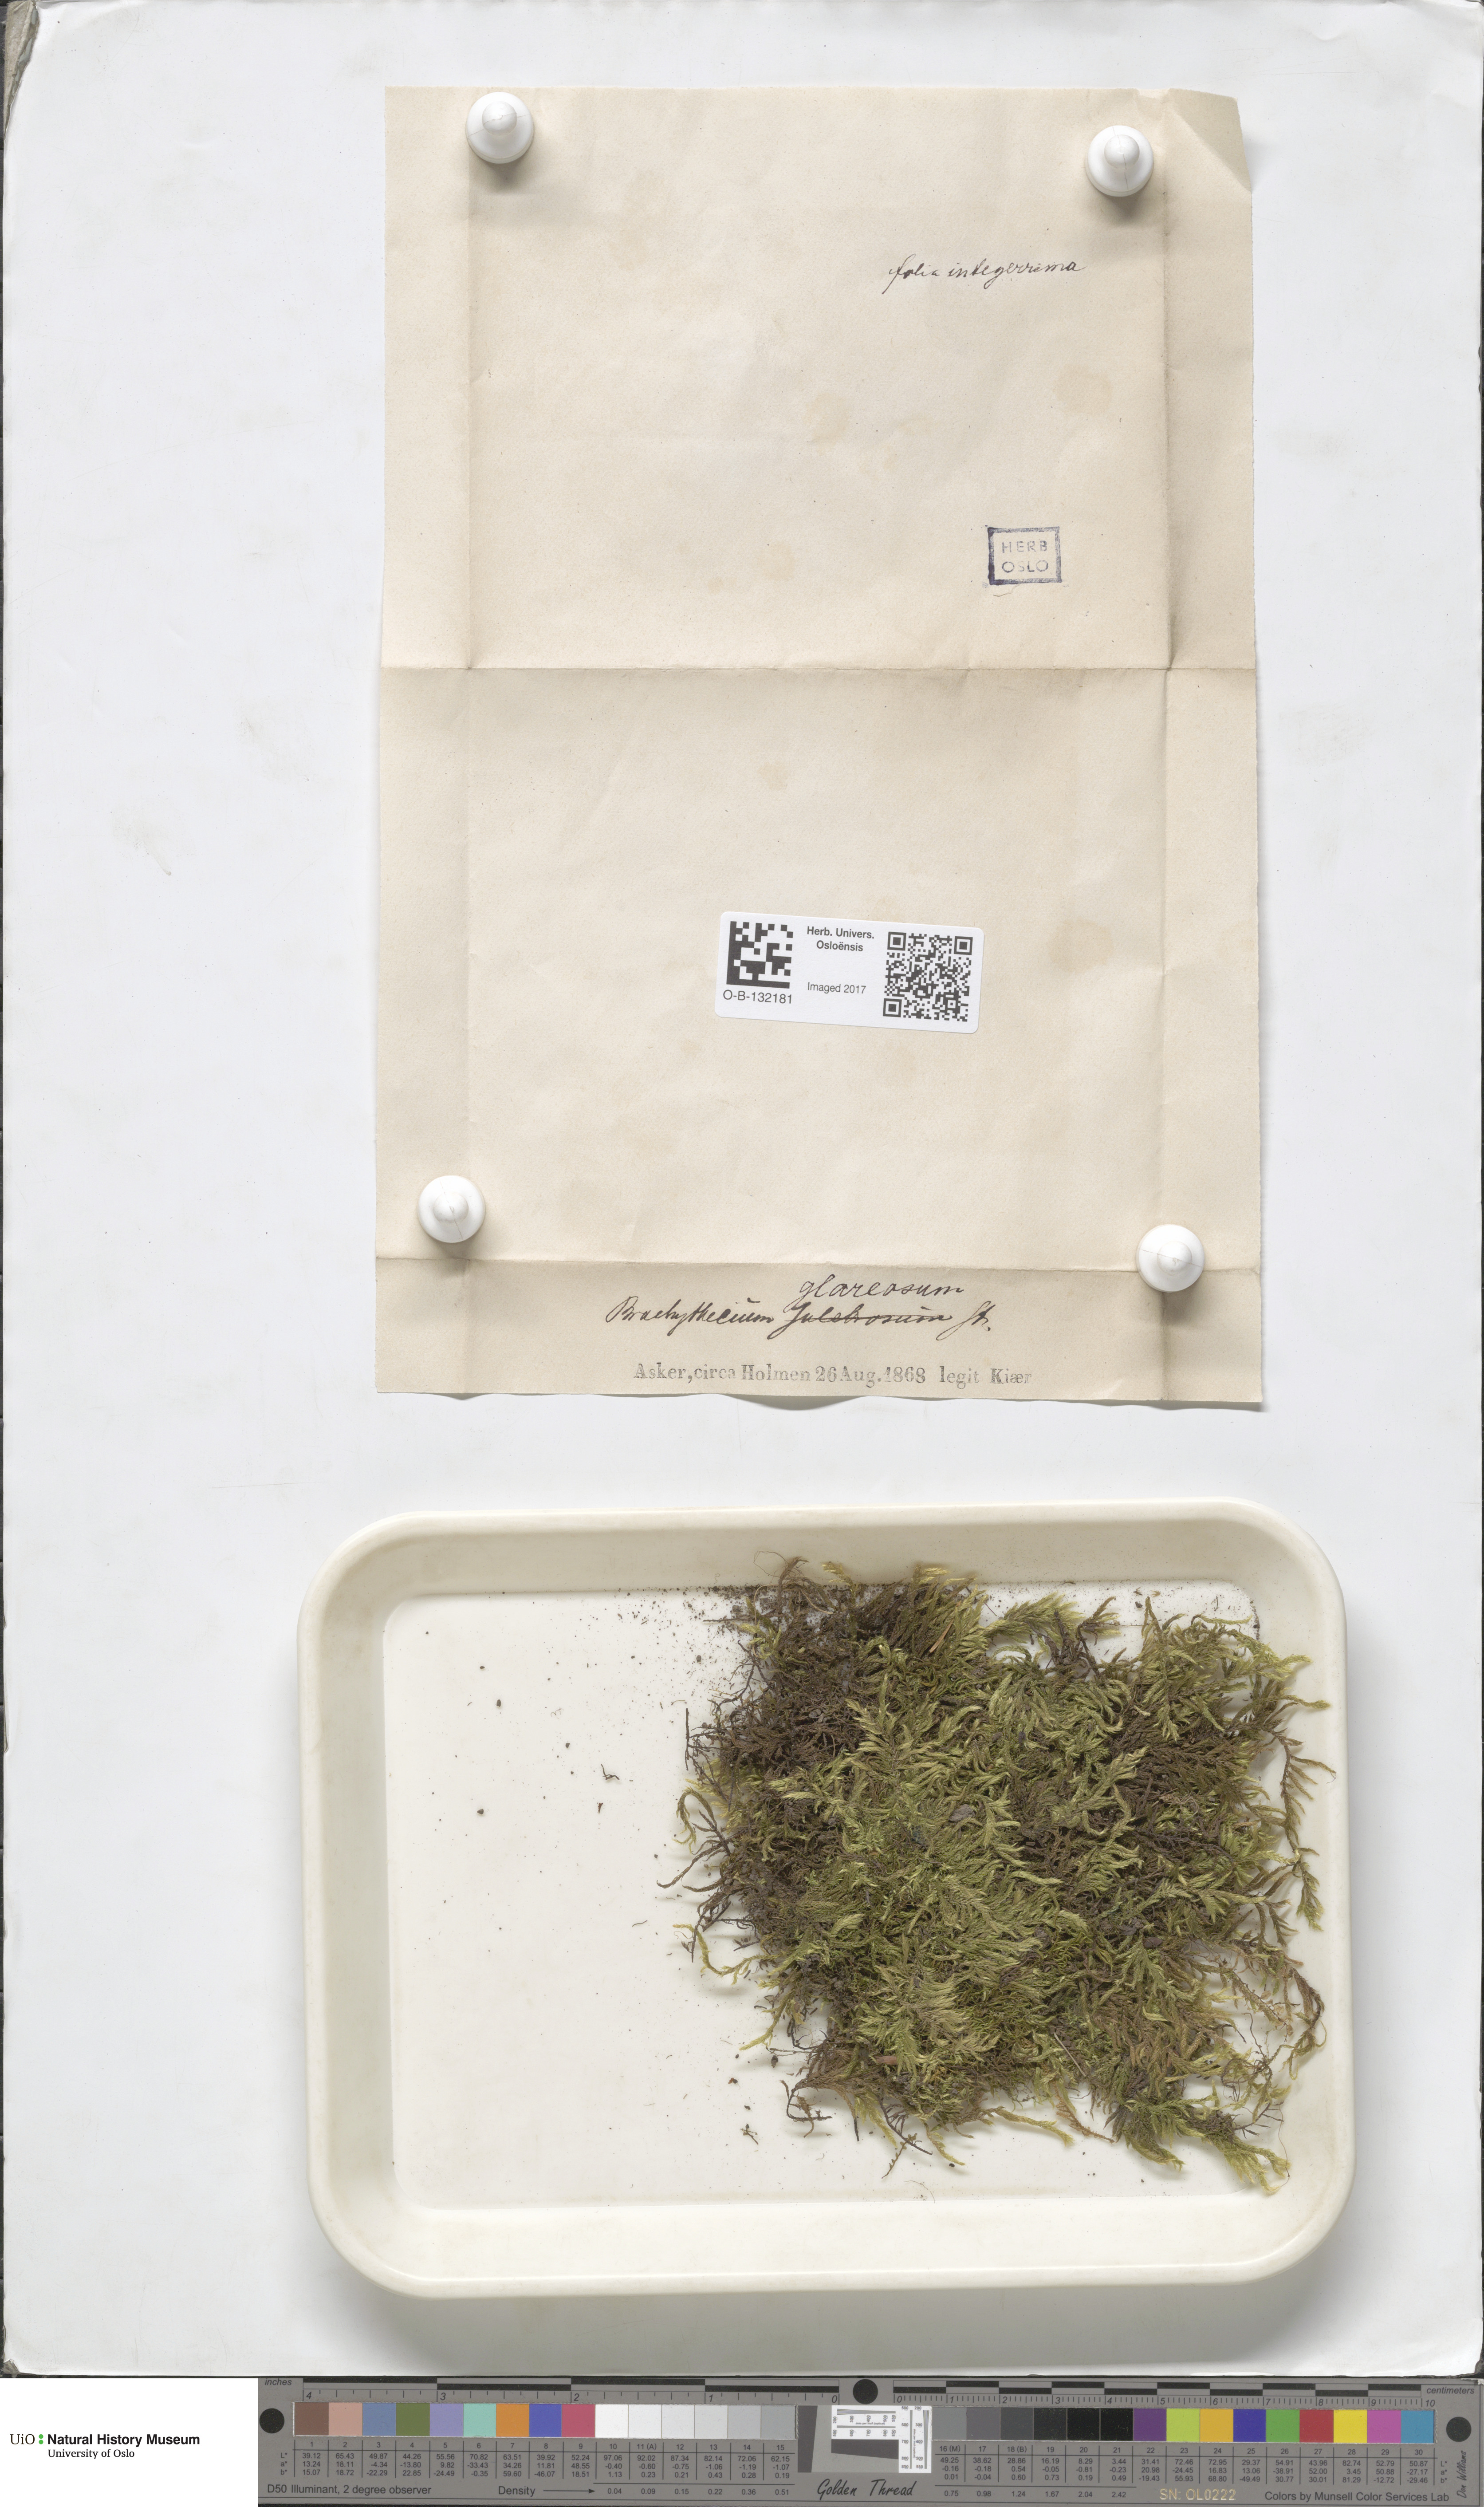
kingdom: Plantae
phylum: Bryophyta
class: Bryopsida
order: Hypnales
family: Brachytheciaceae
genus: Brachythecium
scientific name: Brachythecium glareosum
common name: Streaky feather-moss
